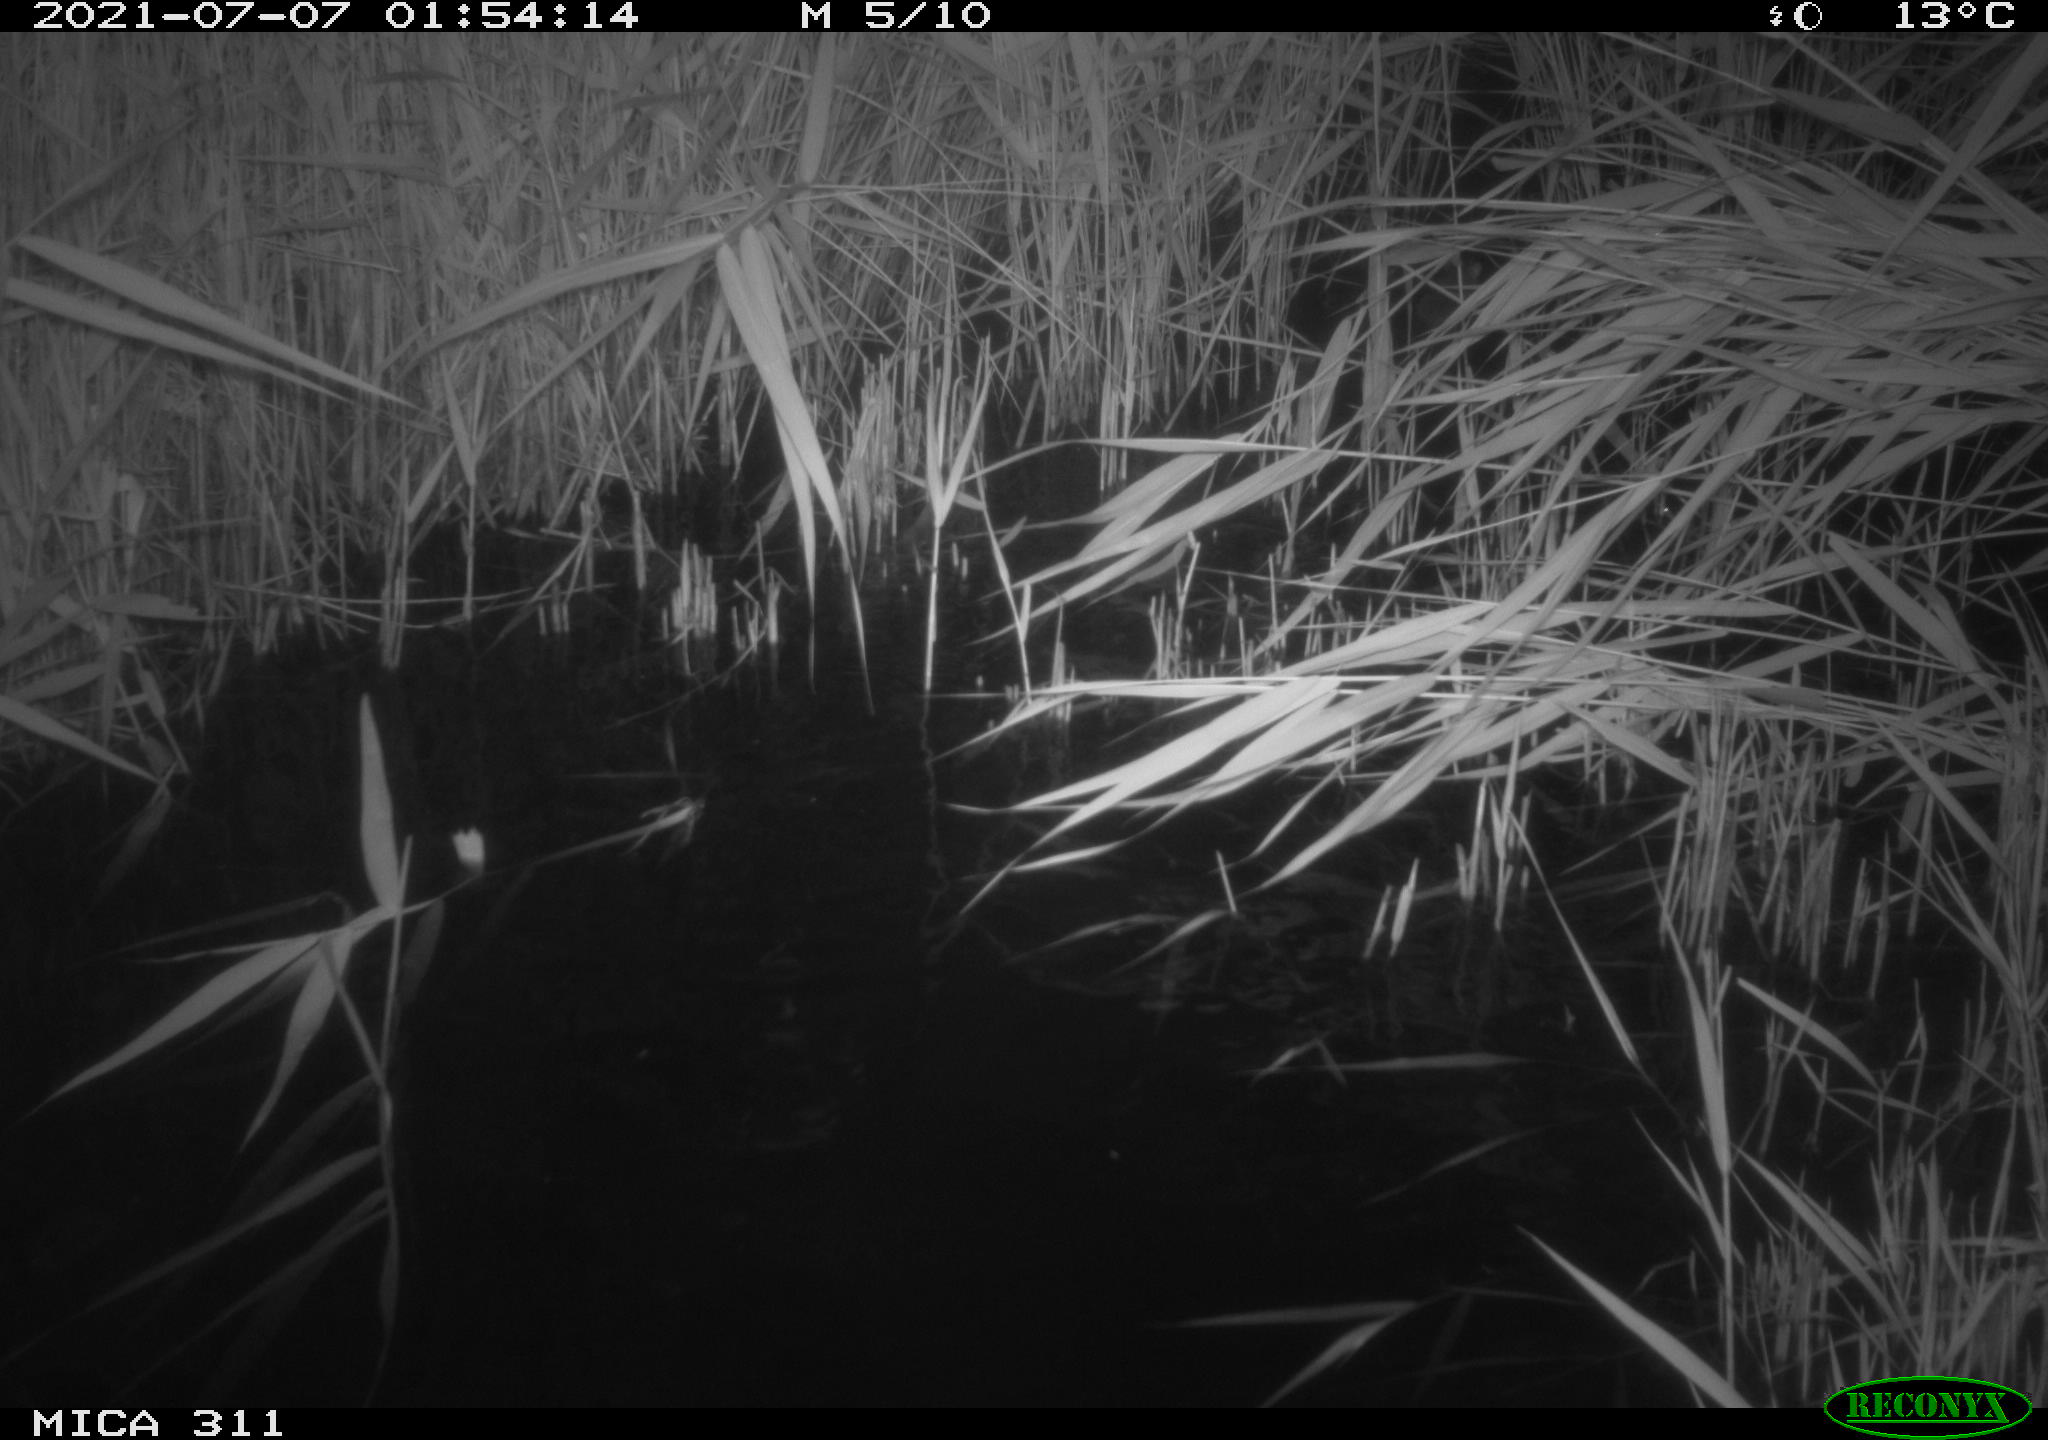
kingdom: Animalia
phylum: Chordata
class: Mammalia
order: Rodentia
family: Muridae
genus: Rattus
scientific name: Rattus norvegicus
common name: Brown rat
